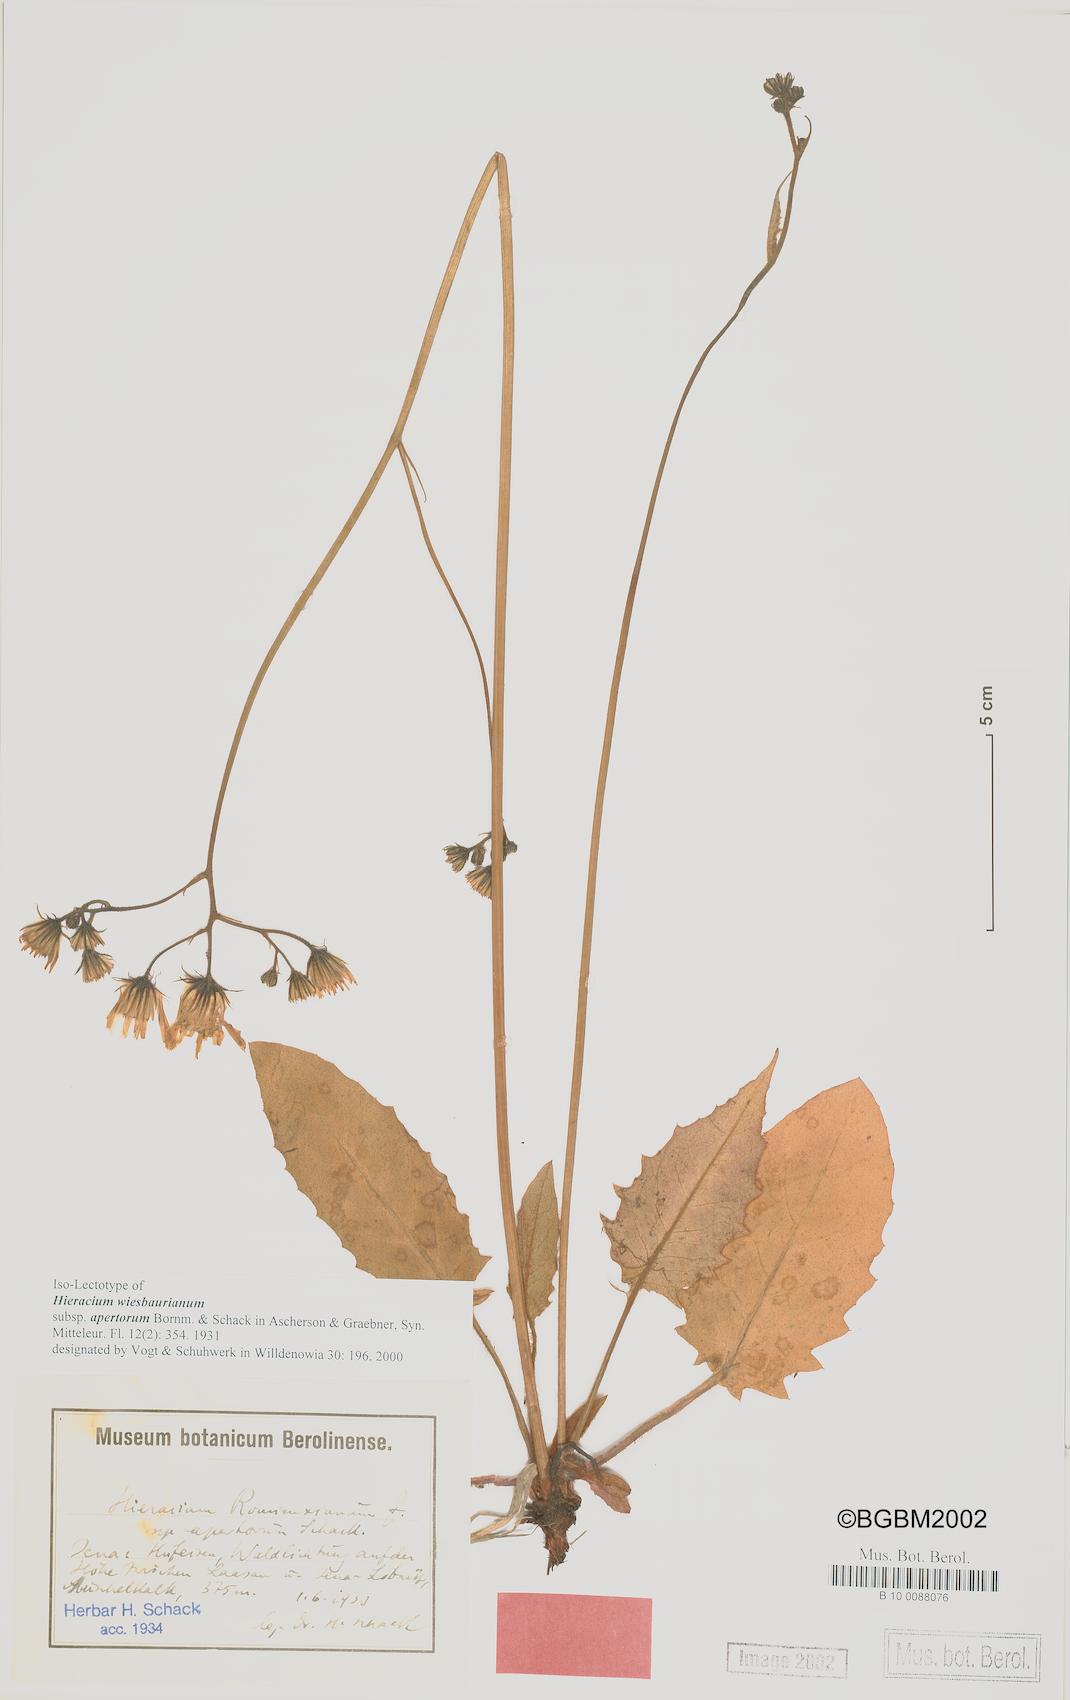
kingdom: Plantae
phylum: Tracheophyta
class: Magnoliopsida
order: Asterales
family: Asteraceae
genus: Hieracium
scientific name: Hieracium hypochoeroides
